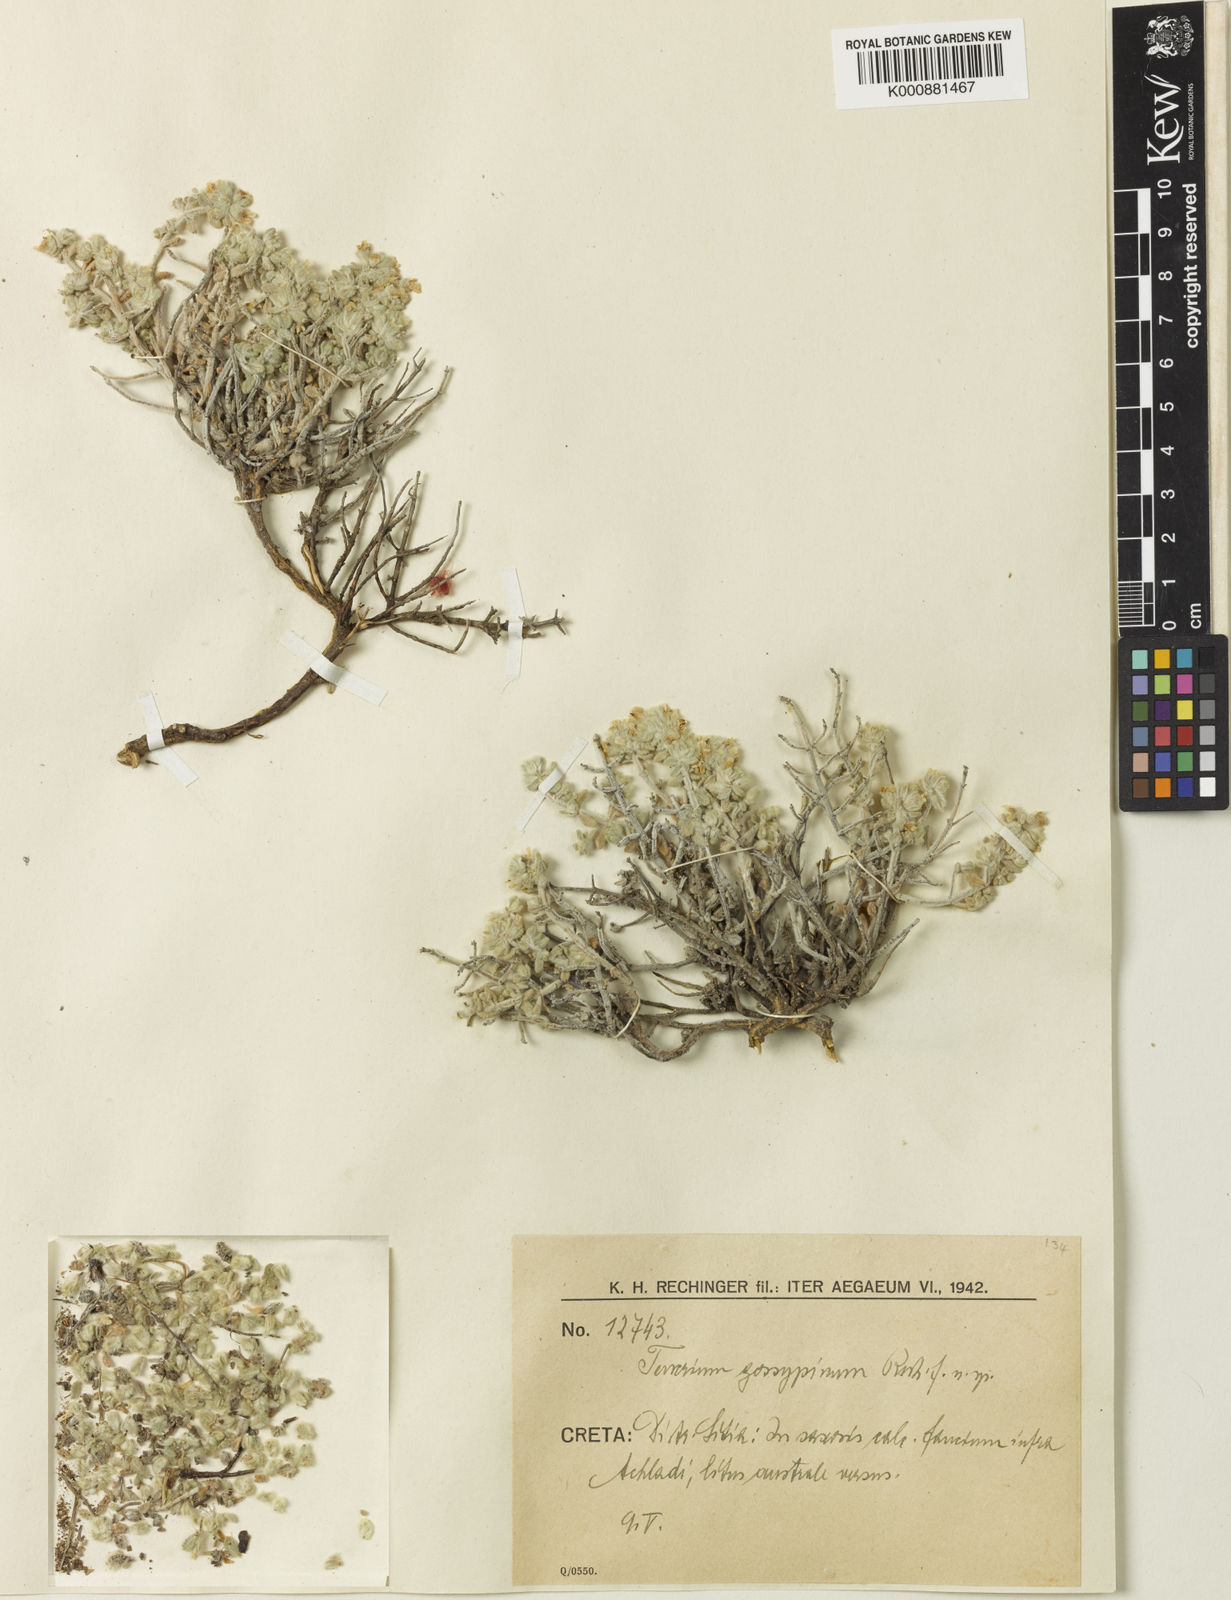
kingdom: Plantae
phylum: Tracheophyta
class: Magnoliopsida
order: Lamiales
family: Lamiaceae
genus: Teucrium
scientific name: Teucrium alpestre
